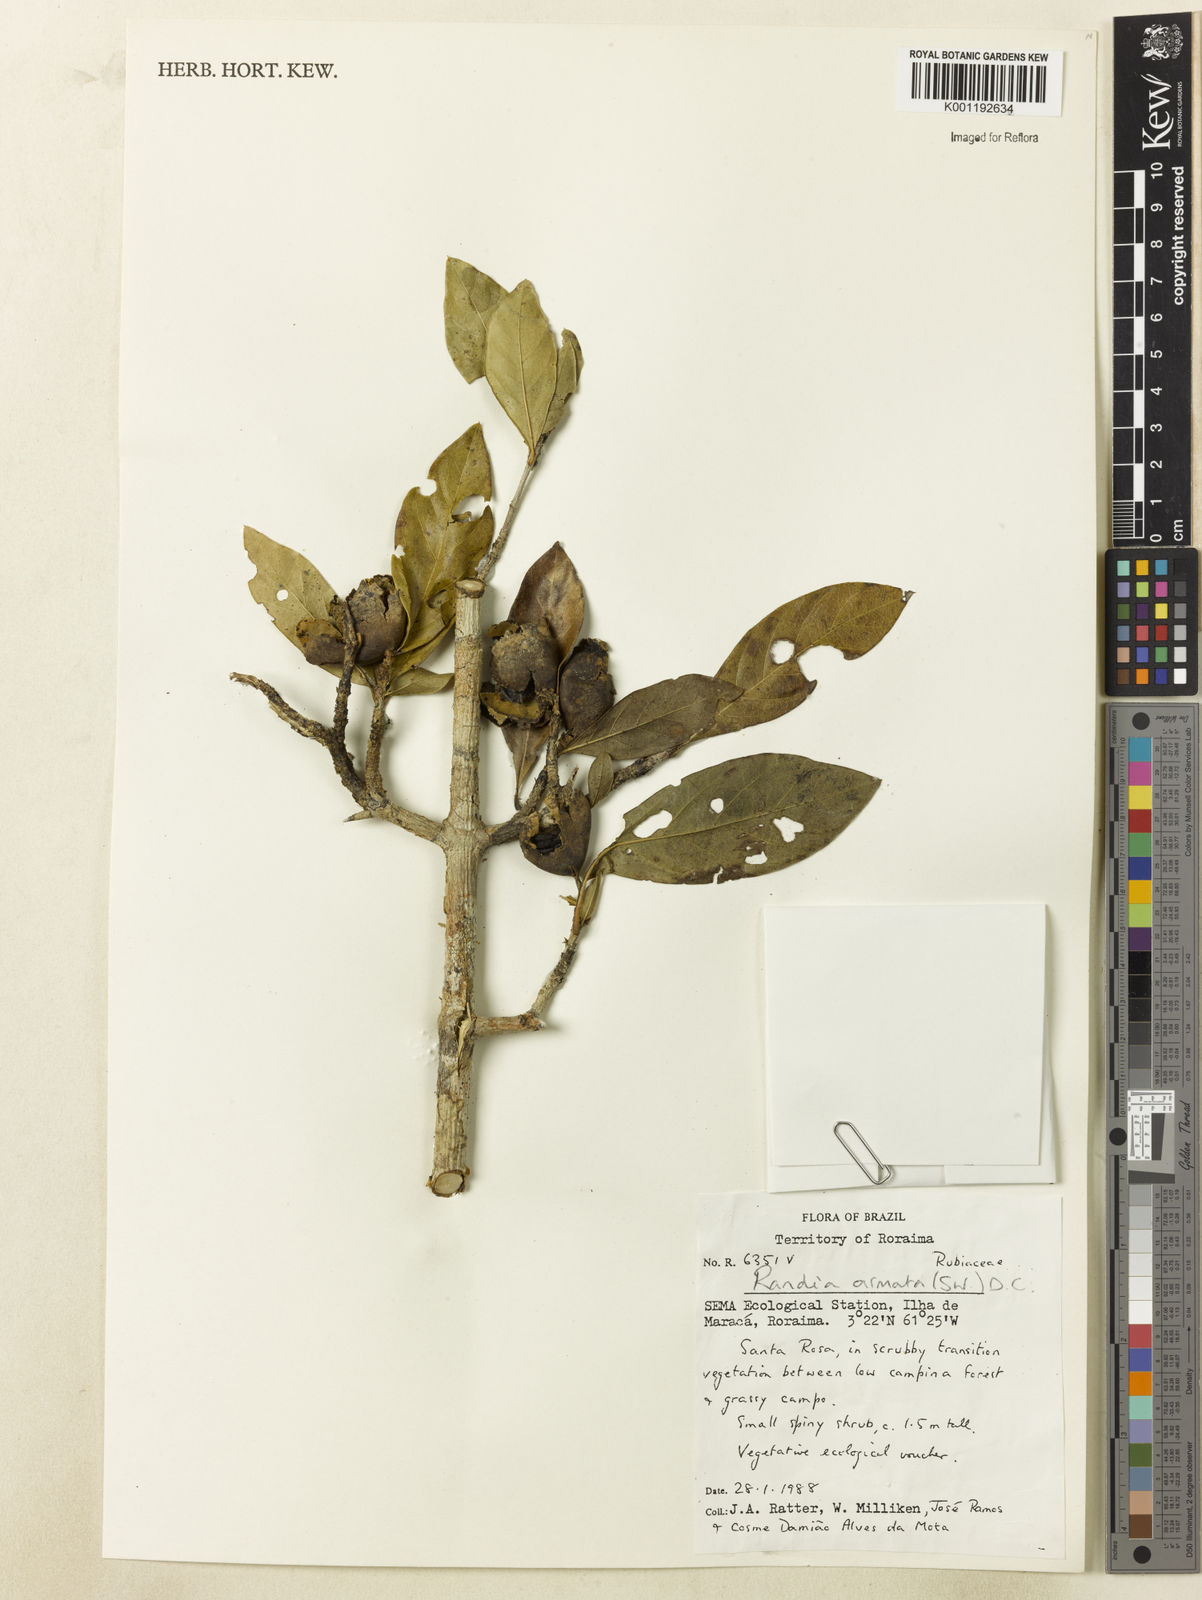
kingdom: Plantae
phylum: Tracheophyta
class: Magnoliopsida
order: Gentianales
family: Rubiaceae
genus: Randia
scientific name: Randia armata
